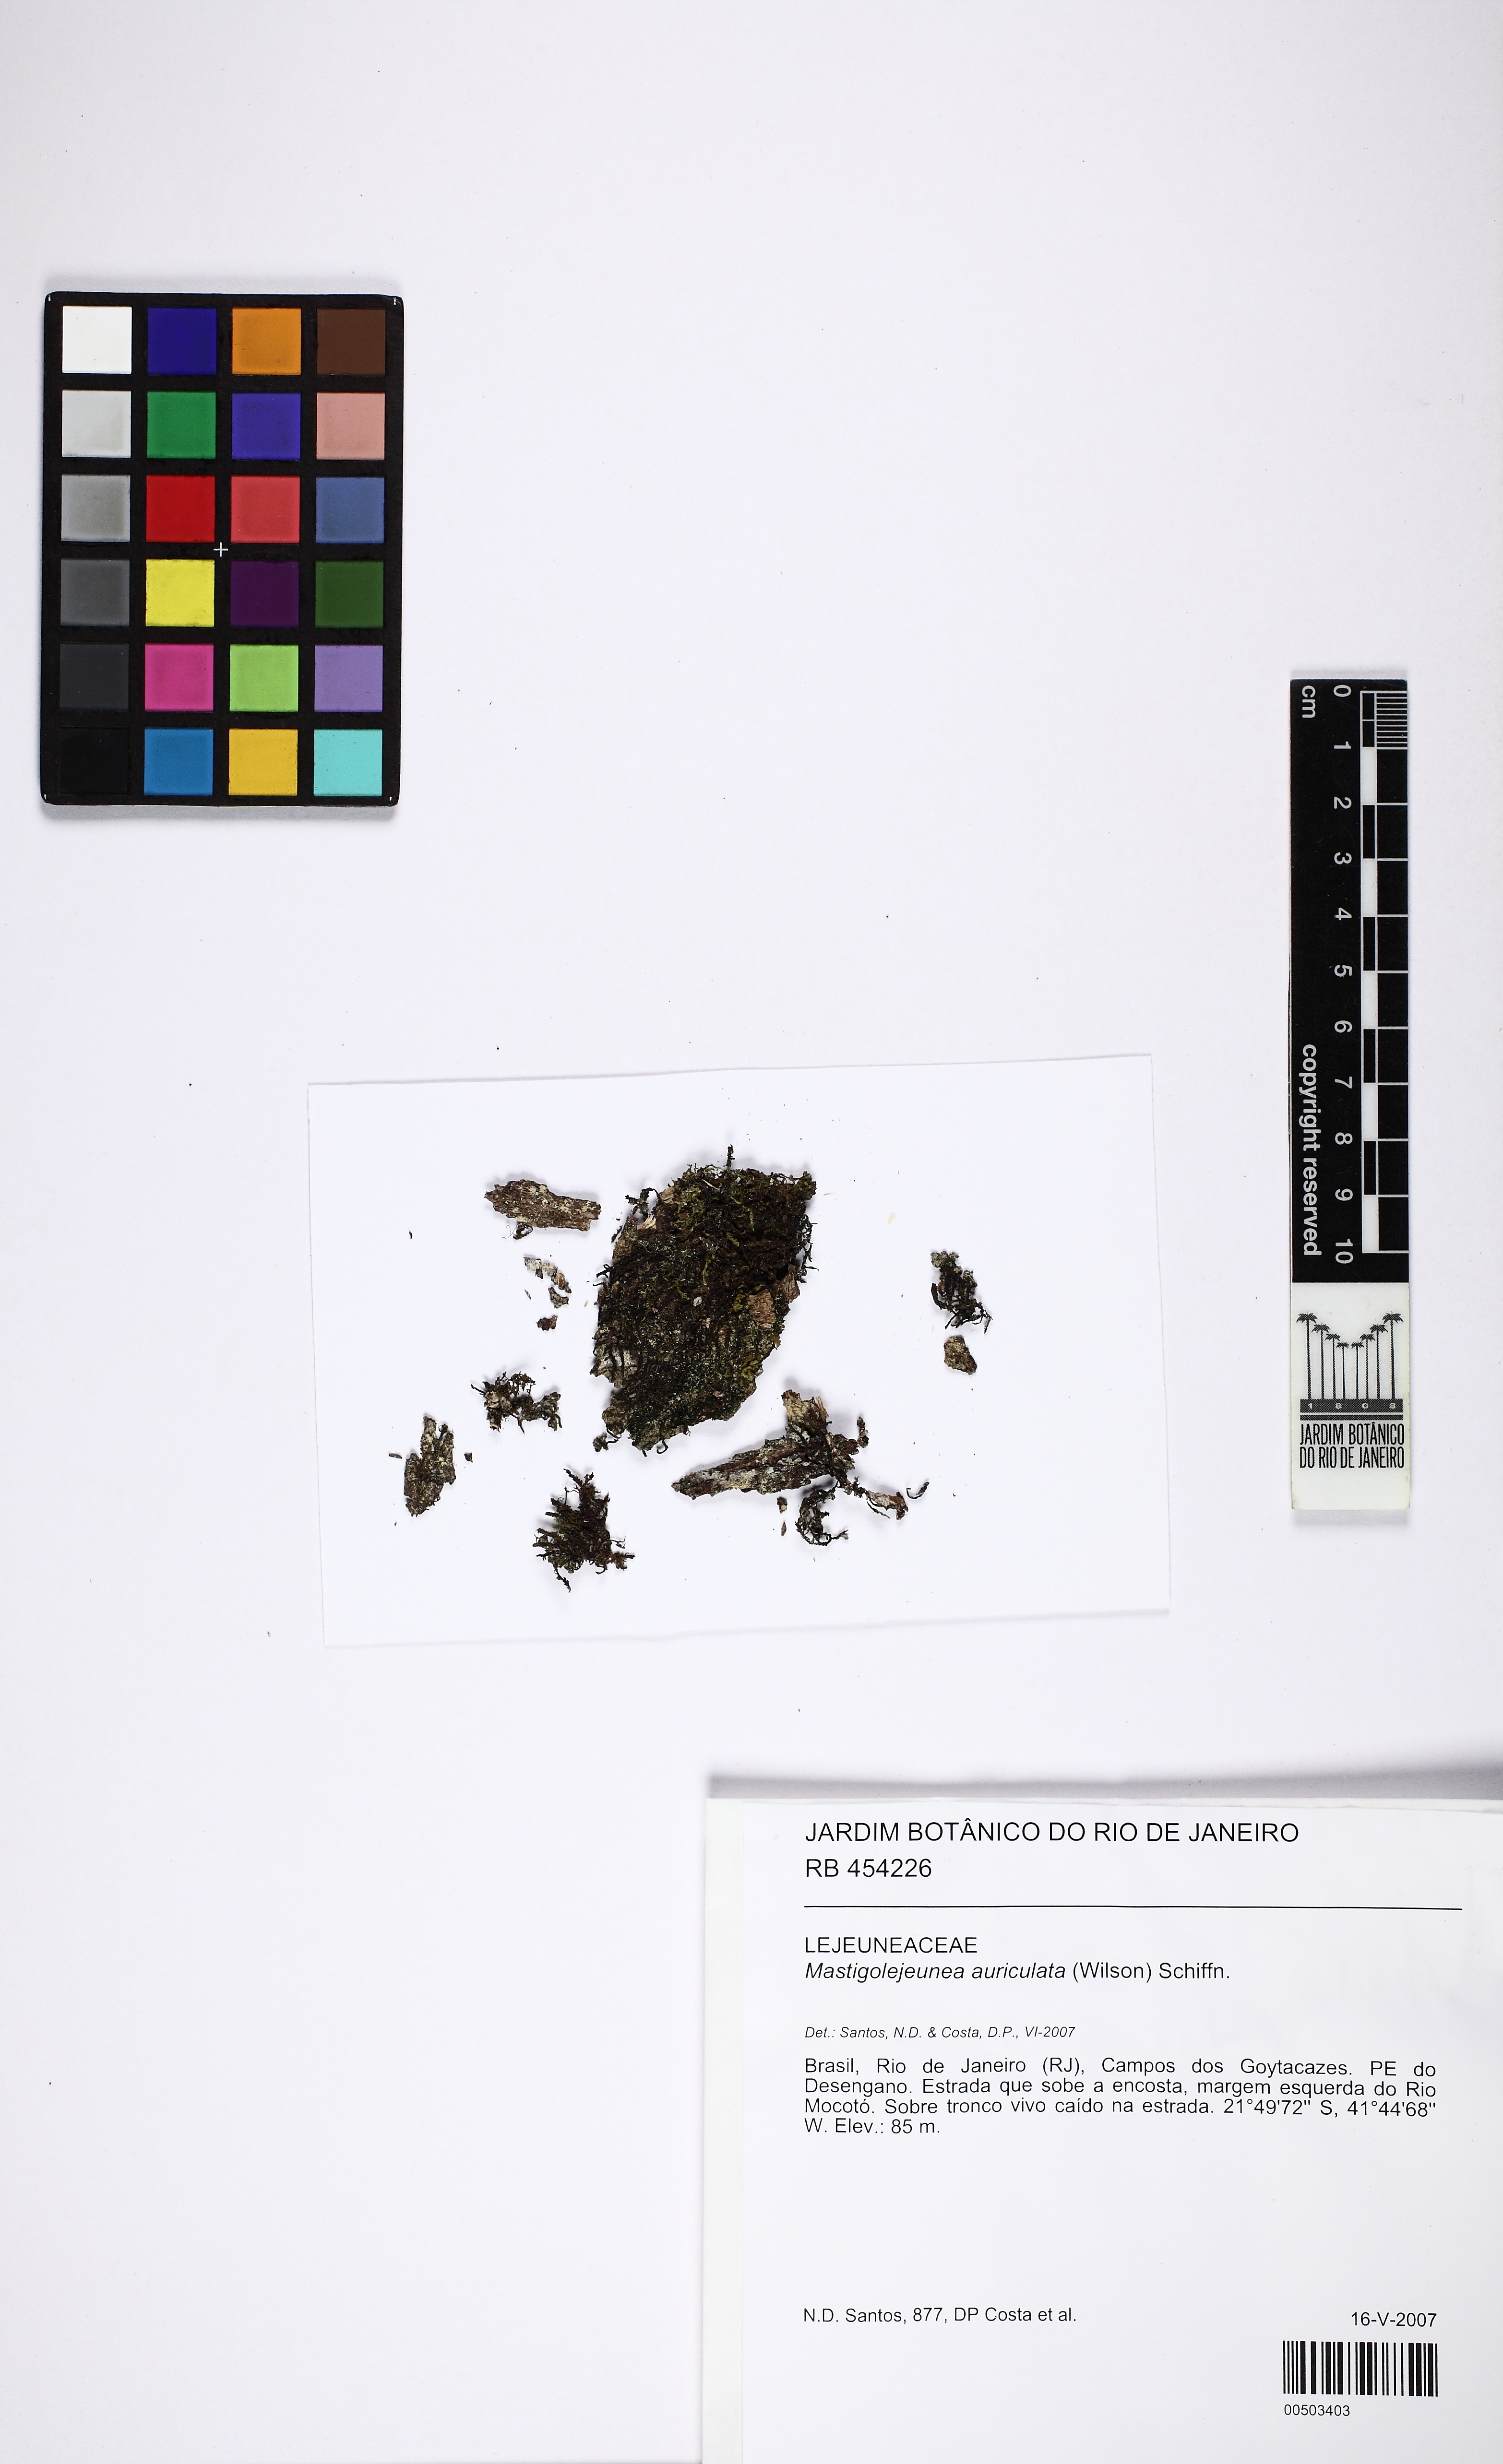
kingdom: Plantae
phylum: Marchantiophyta
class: Jungermanniopsida
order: Porellales
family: Lejeuneaceae
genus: Thysananthus
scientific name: Thysananthus auriculatus
